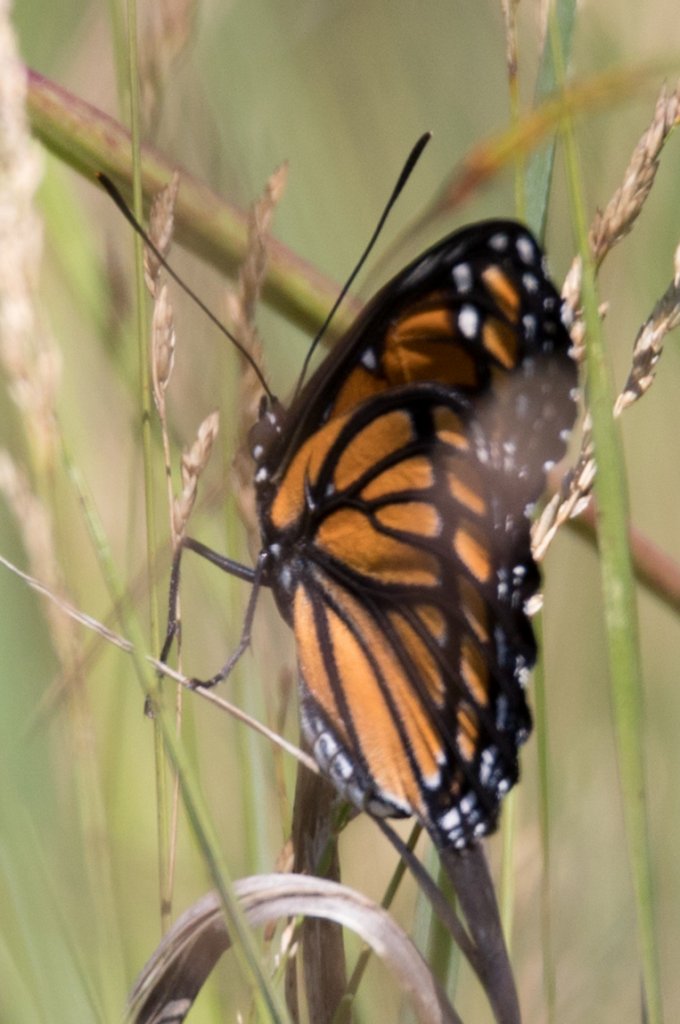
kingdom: Animalia
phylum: Arthropoda
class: Insecta
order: Lepidoptera
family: Nymphalidae
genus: Limenitis
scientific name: Limenitis archippus
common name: Viceroy
